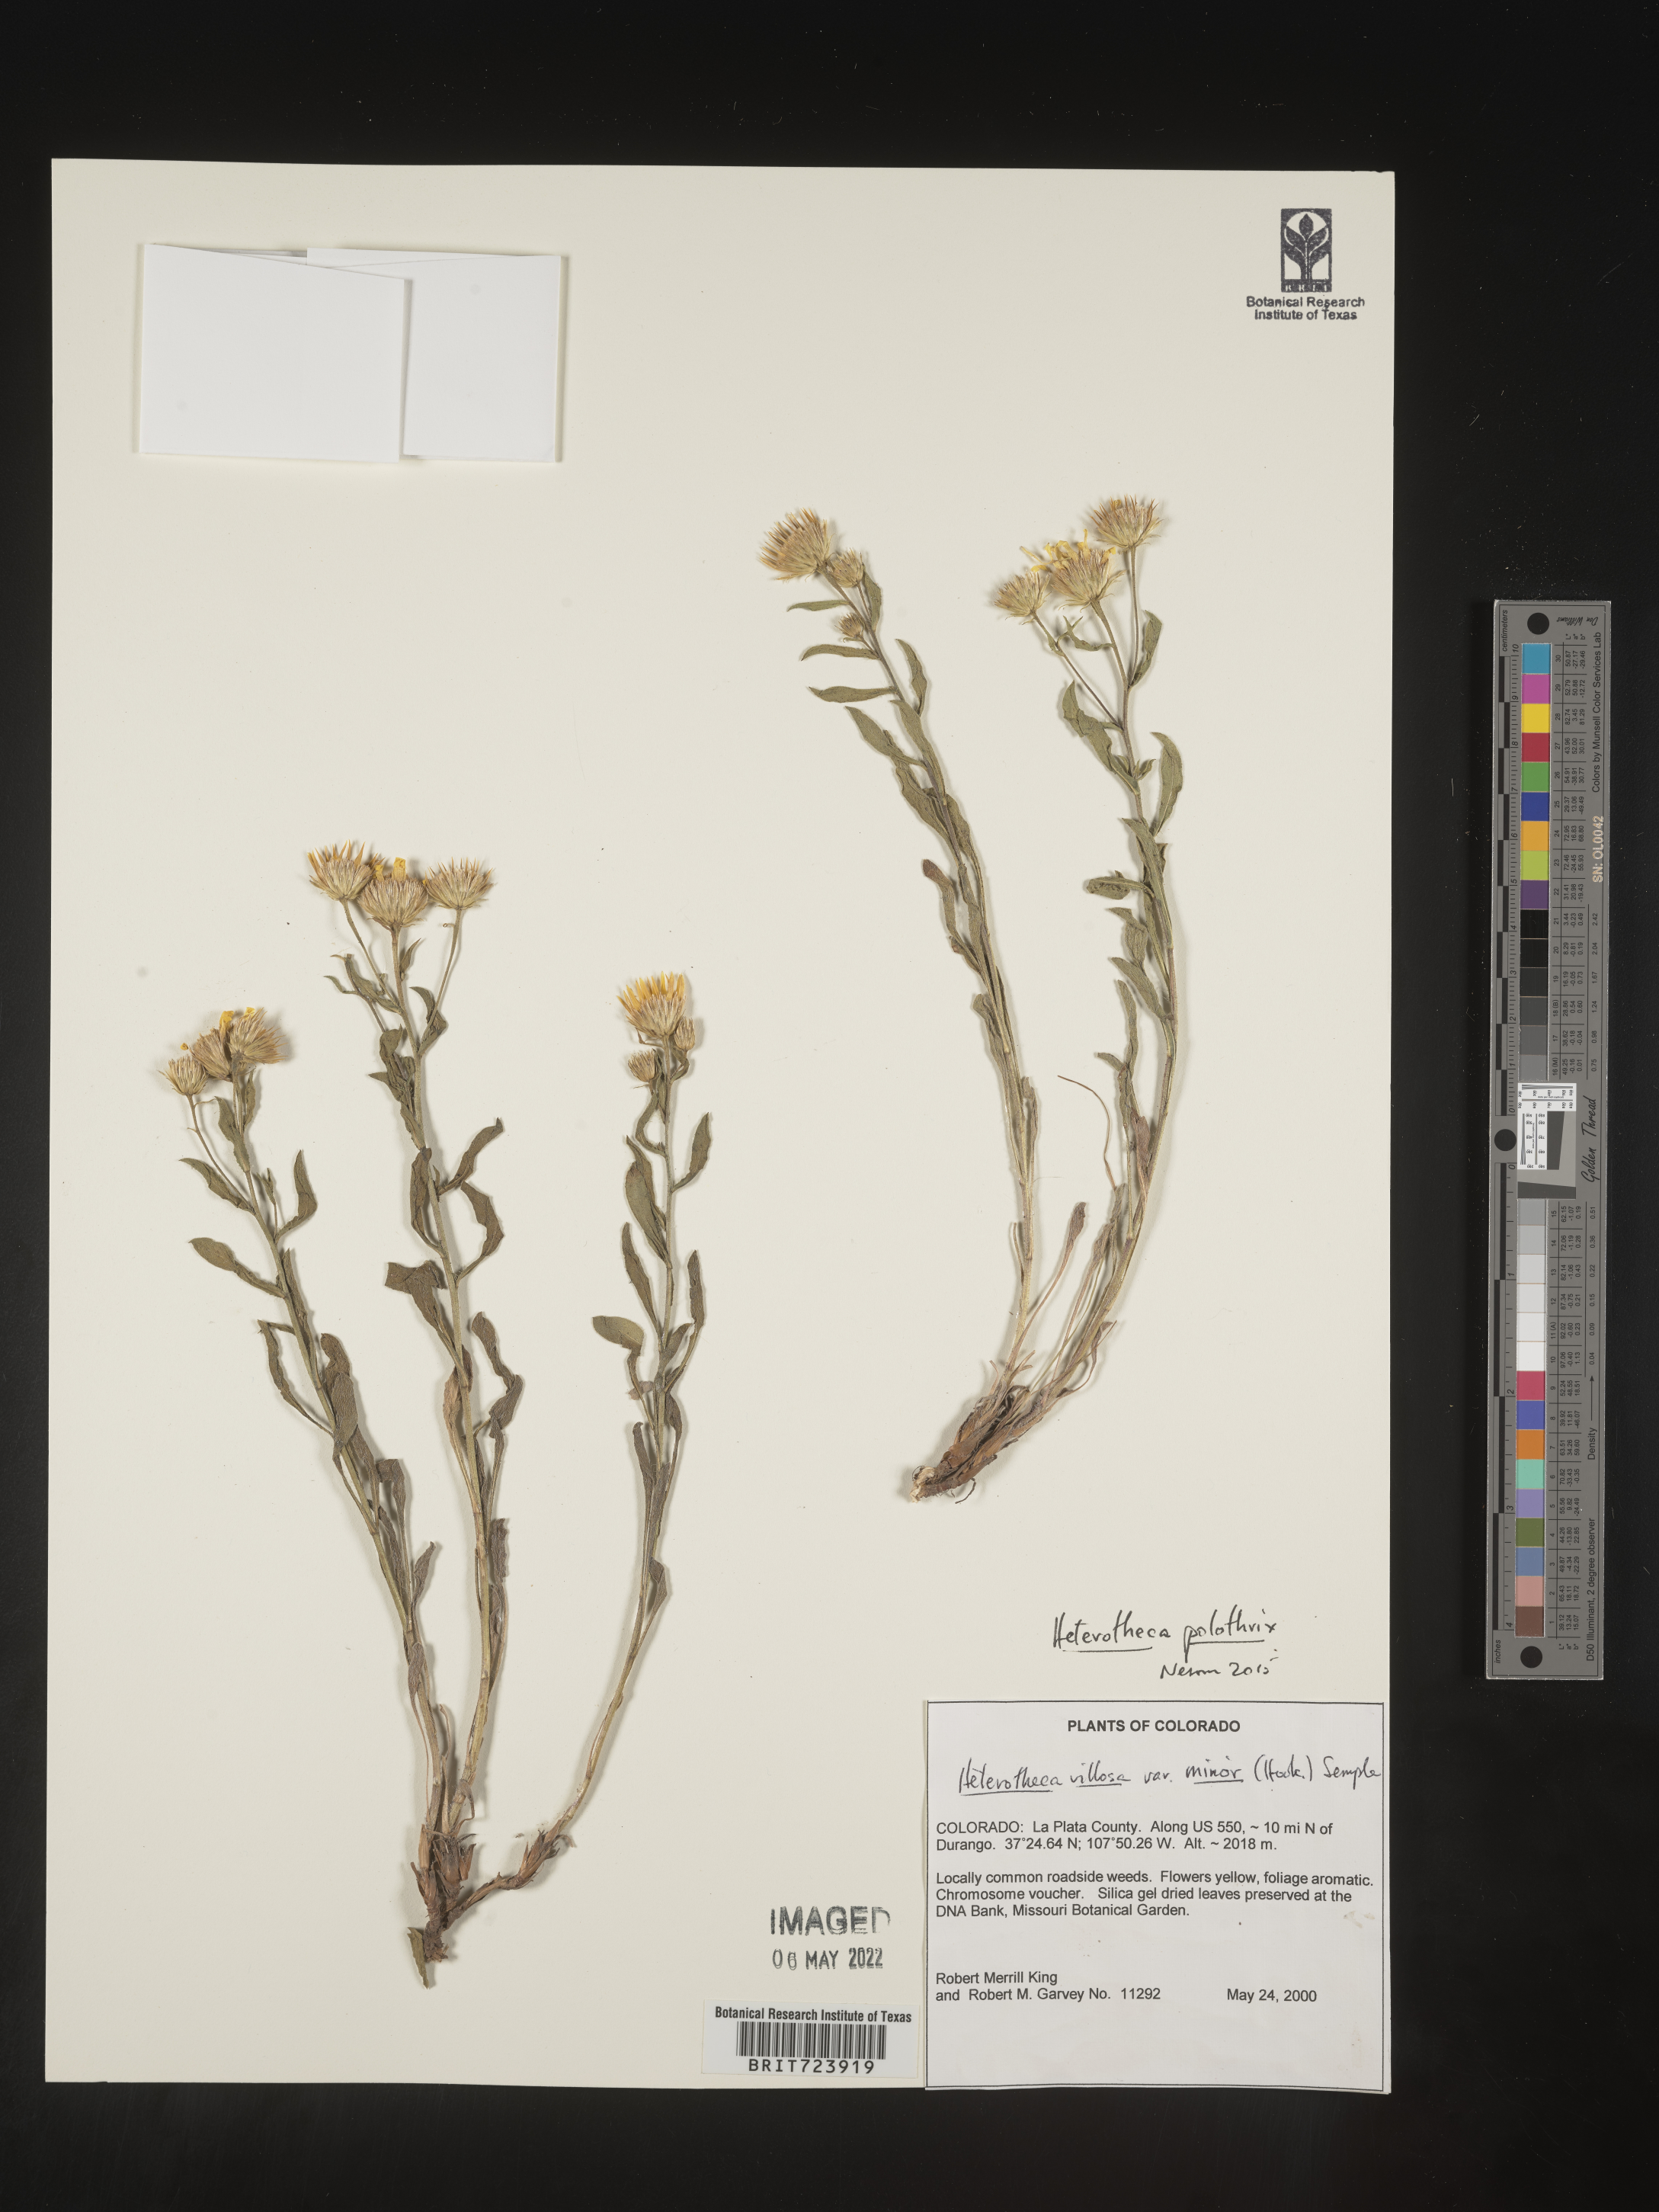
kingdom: Plantae
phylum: Tracheophyta
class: Magnoliopsida
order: Asterales
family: Asteraceae
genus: Heterotheca
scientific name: Heterotheca polothrix
